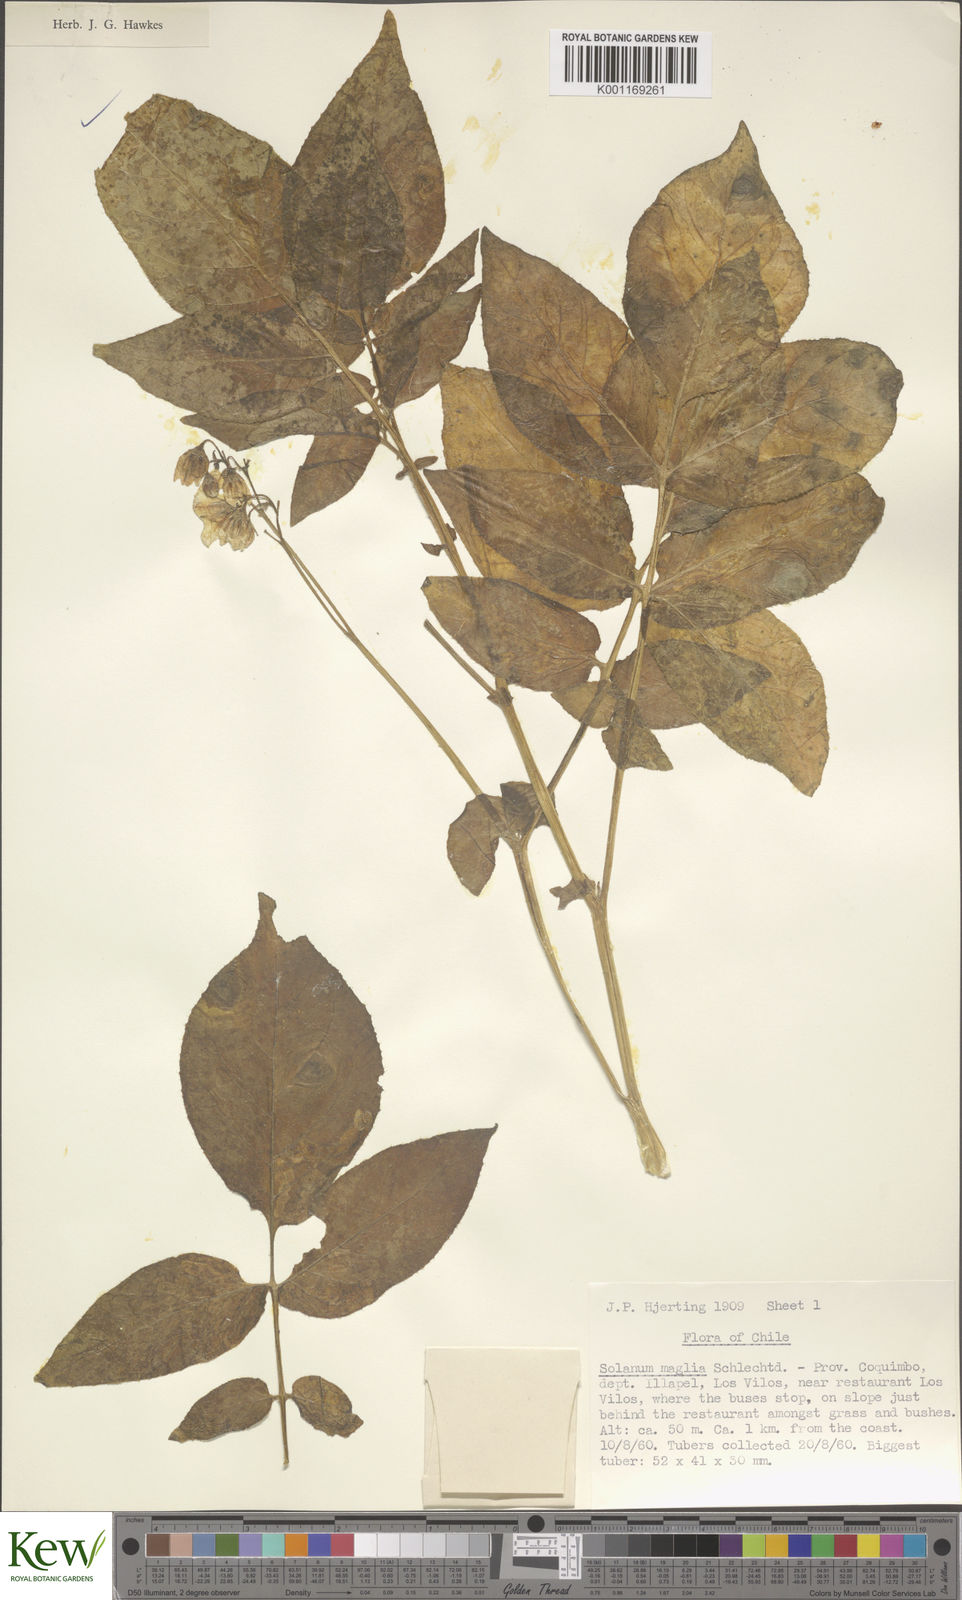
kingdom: Plantae
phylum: Tracheophyta
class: Magnoliopsida
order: Solanales
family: Solanaceae
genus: Solanum
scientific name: Solanum maglia
